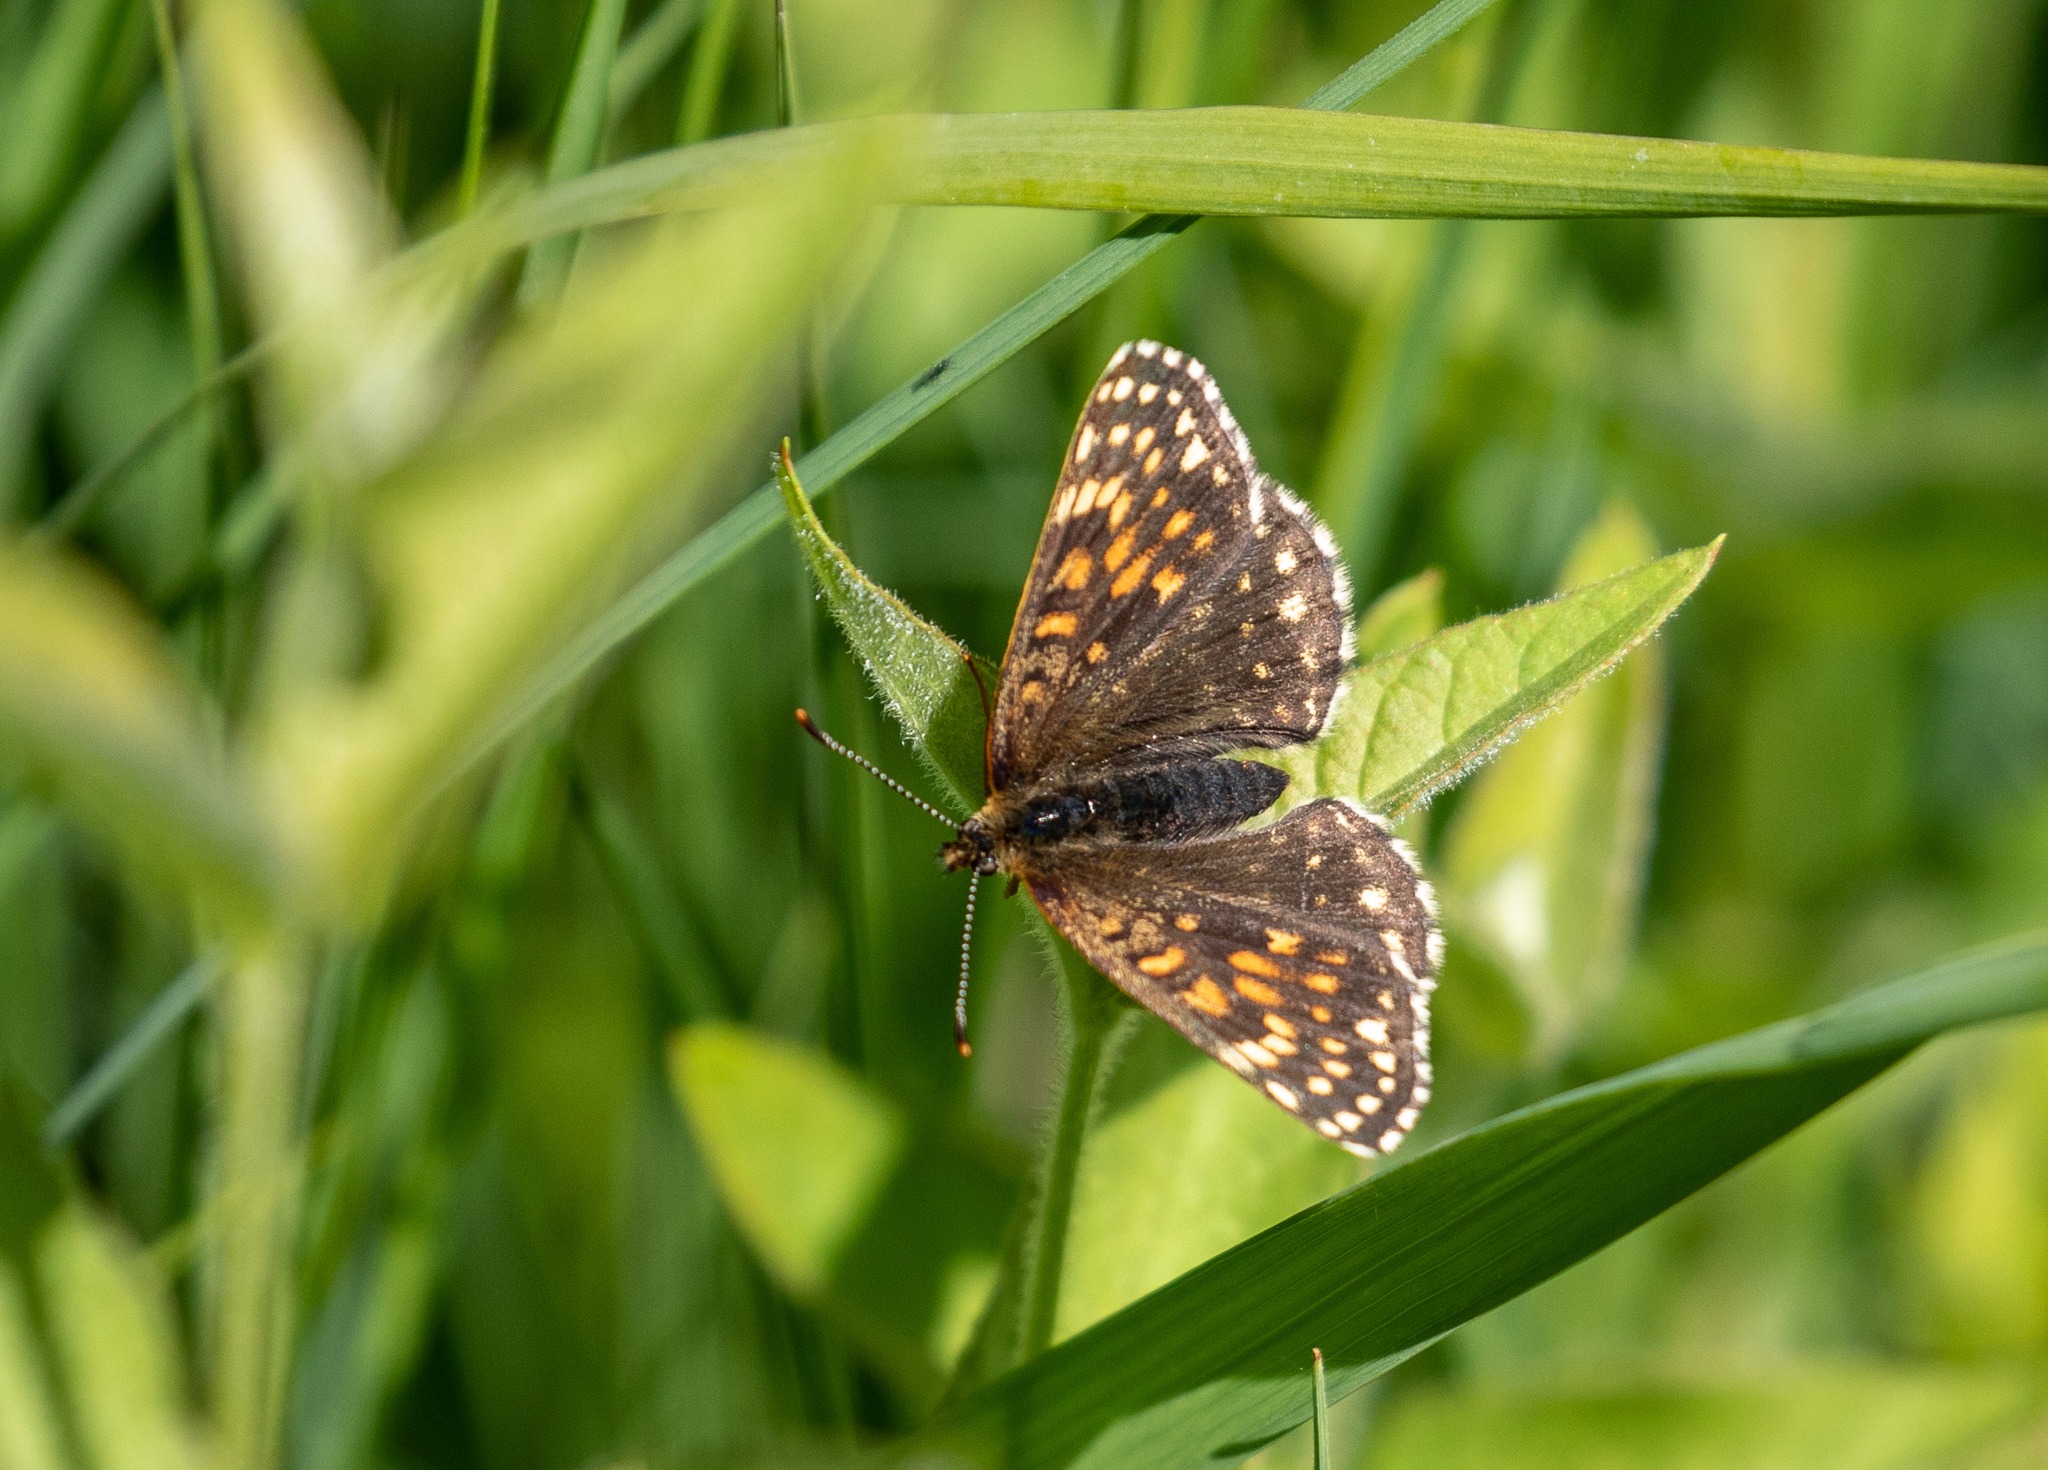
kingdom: Animalia
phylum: Arthropoda
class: Insecta
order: Lepidoptera
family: Nymphalidae
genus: Melitaea
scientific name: Melitaea diamina
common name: Mørk pletvinge
